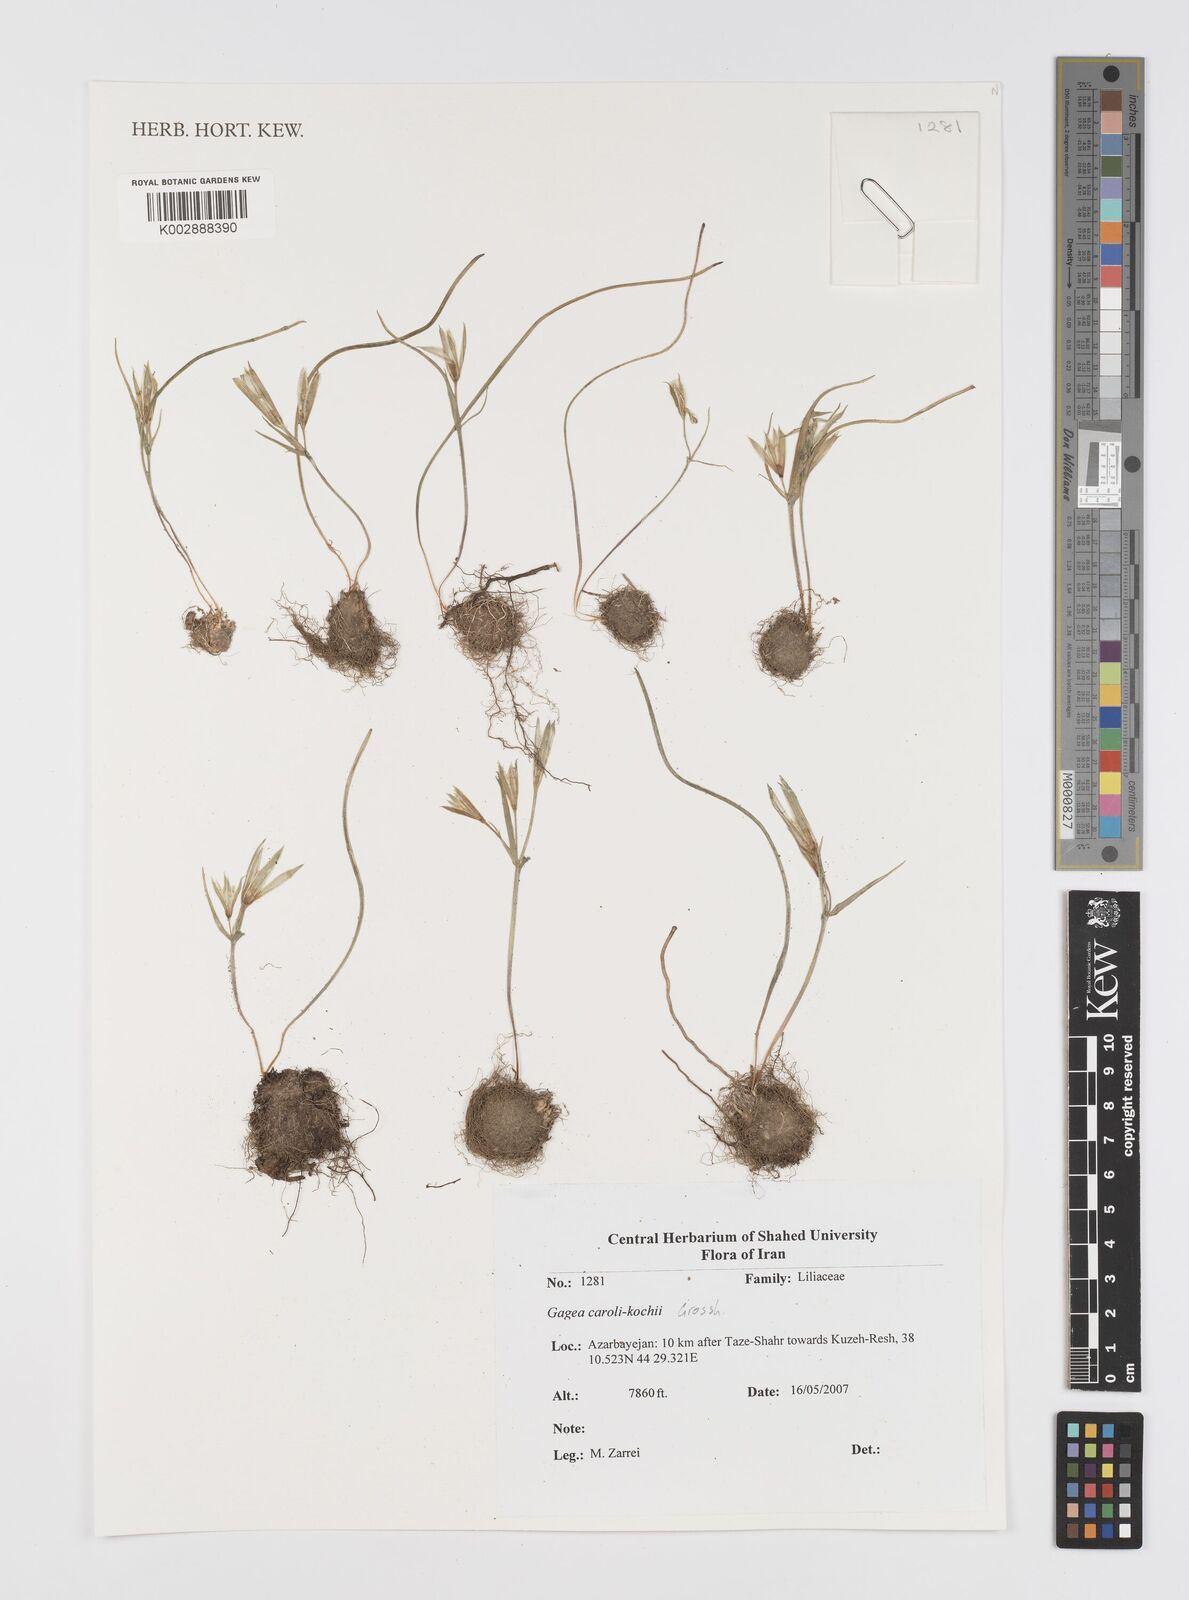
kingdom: Plantae
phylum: Tracheophyta
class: Liliopsida
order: Liliales
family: Liliaceae
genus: Gagea
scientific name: Gagea caroli-kochii
